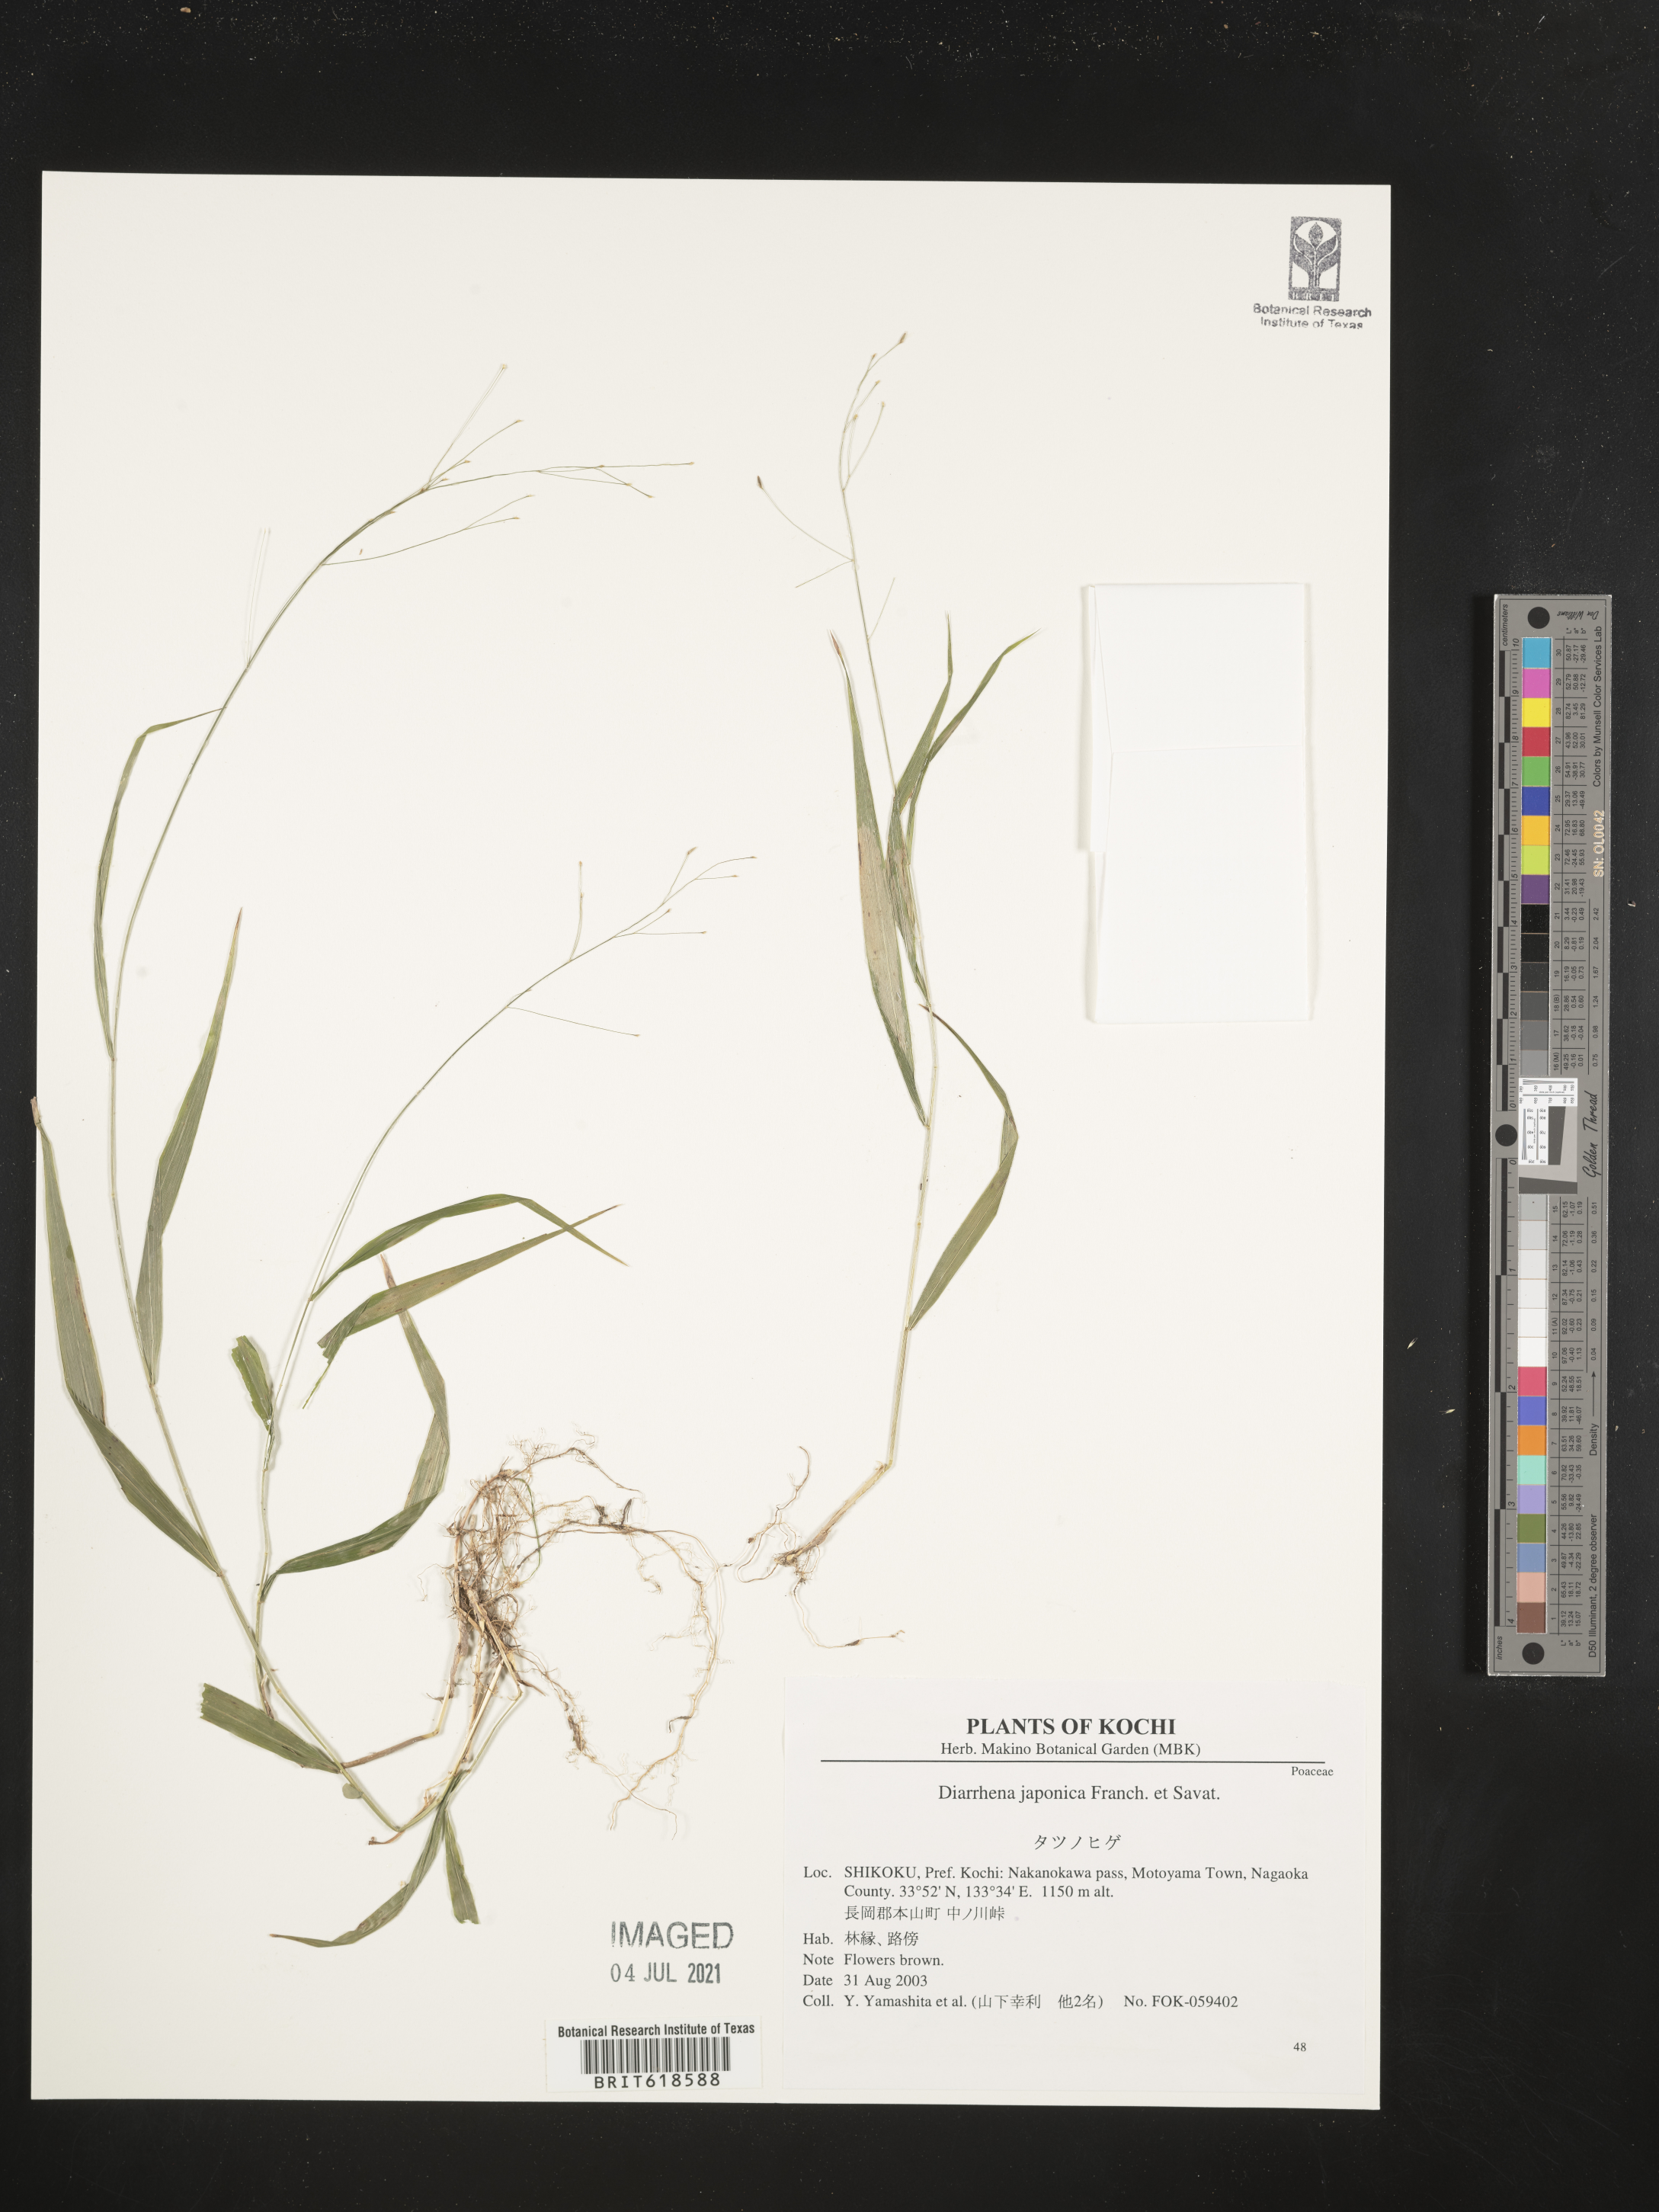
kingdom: Plantae
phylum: Tracheophyta
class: Liliopsida
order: Poales
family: Poaceae
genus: Diarrhena
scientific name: Diarrhena japonica
